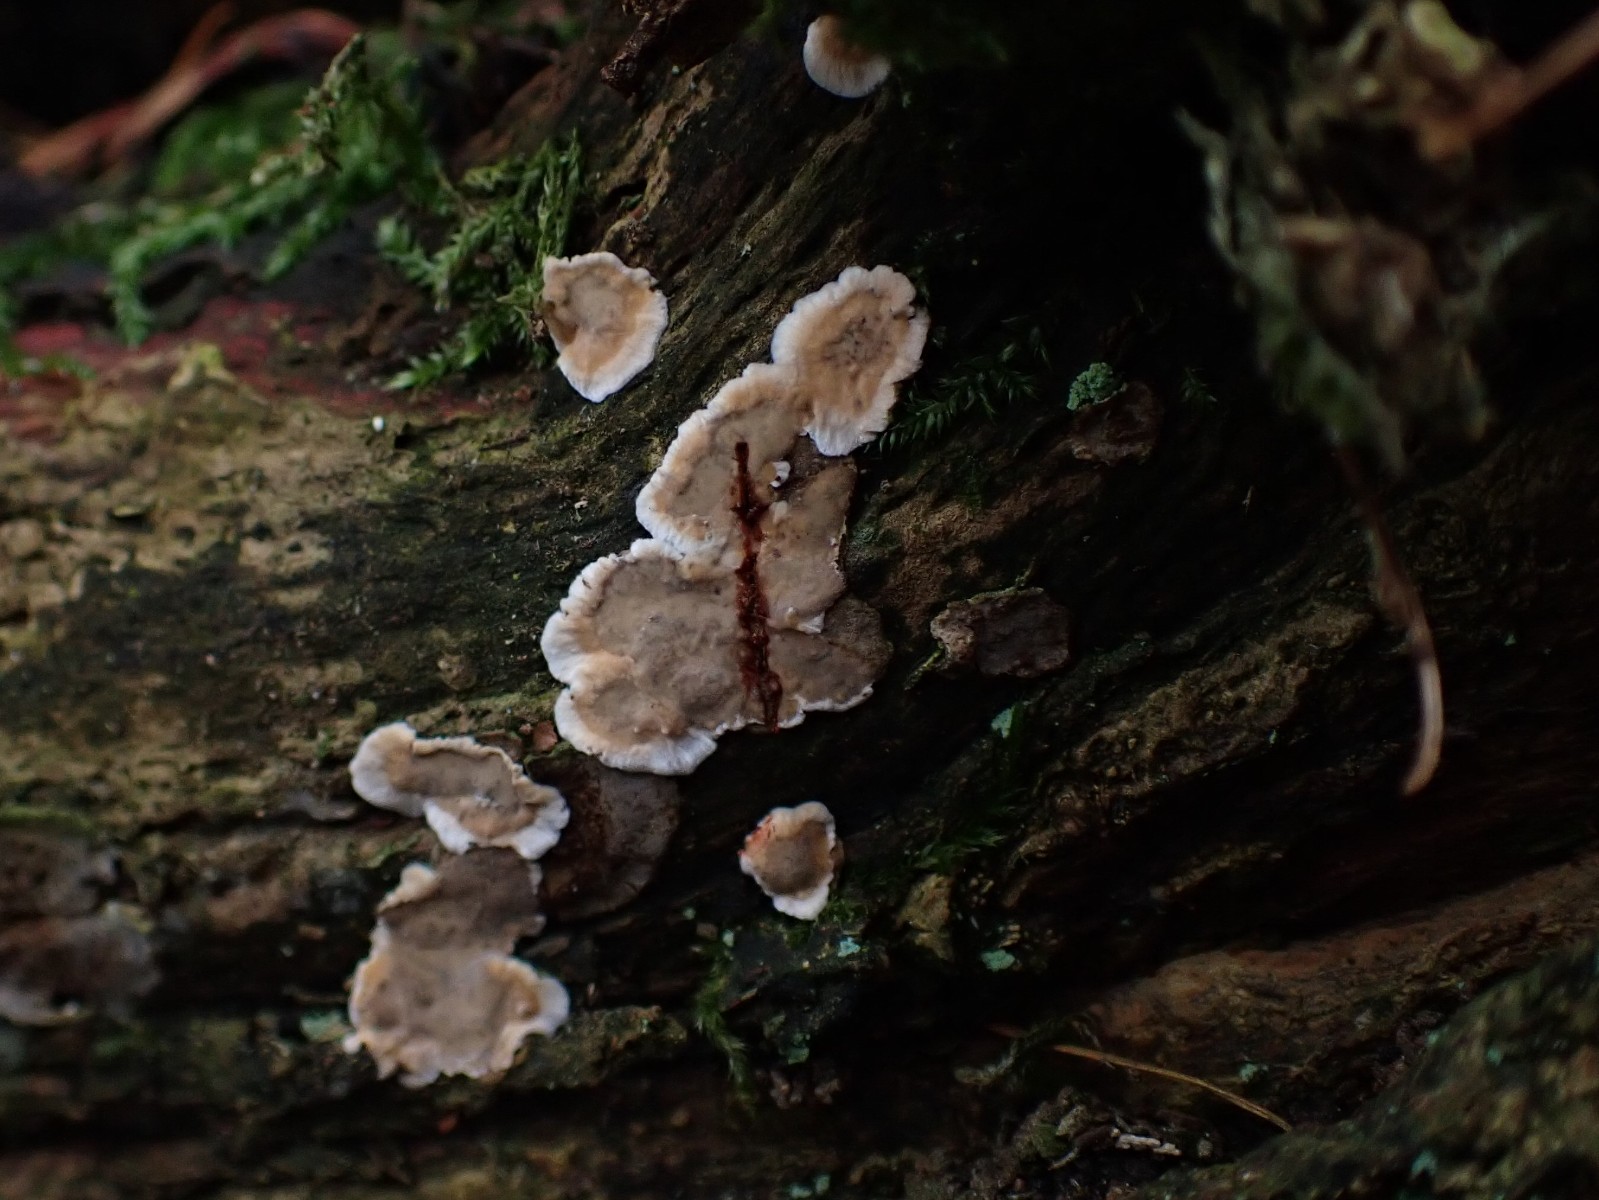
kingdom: Fungi
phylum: Basidiomycota
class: Agaricomycetes
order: Russulales
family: Stereaceae
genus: Stereum
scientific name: Stereum
